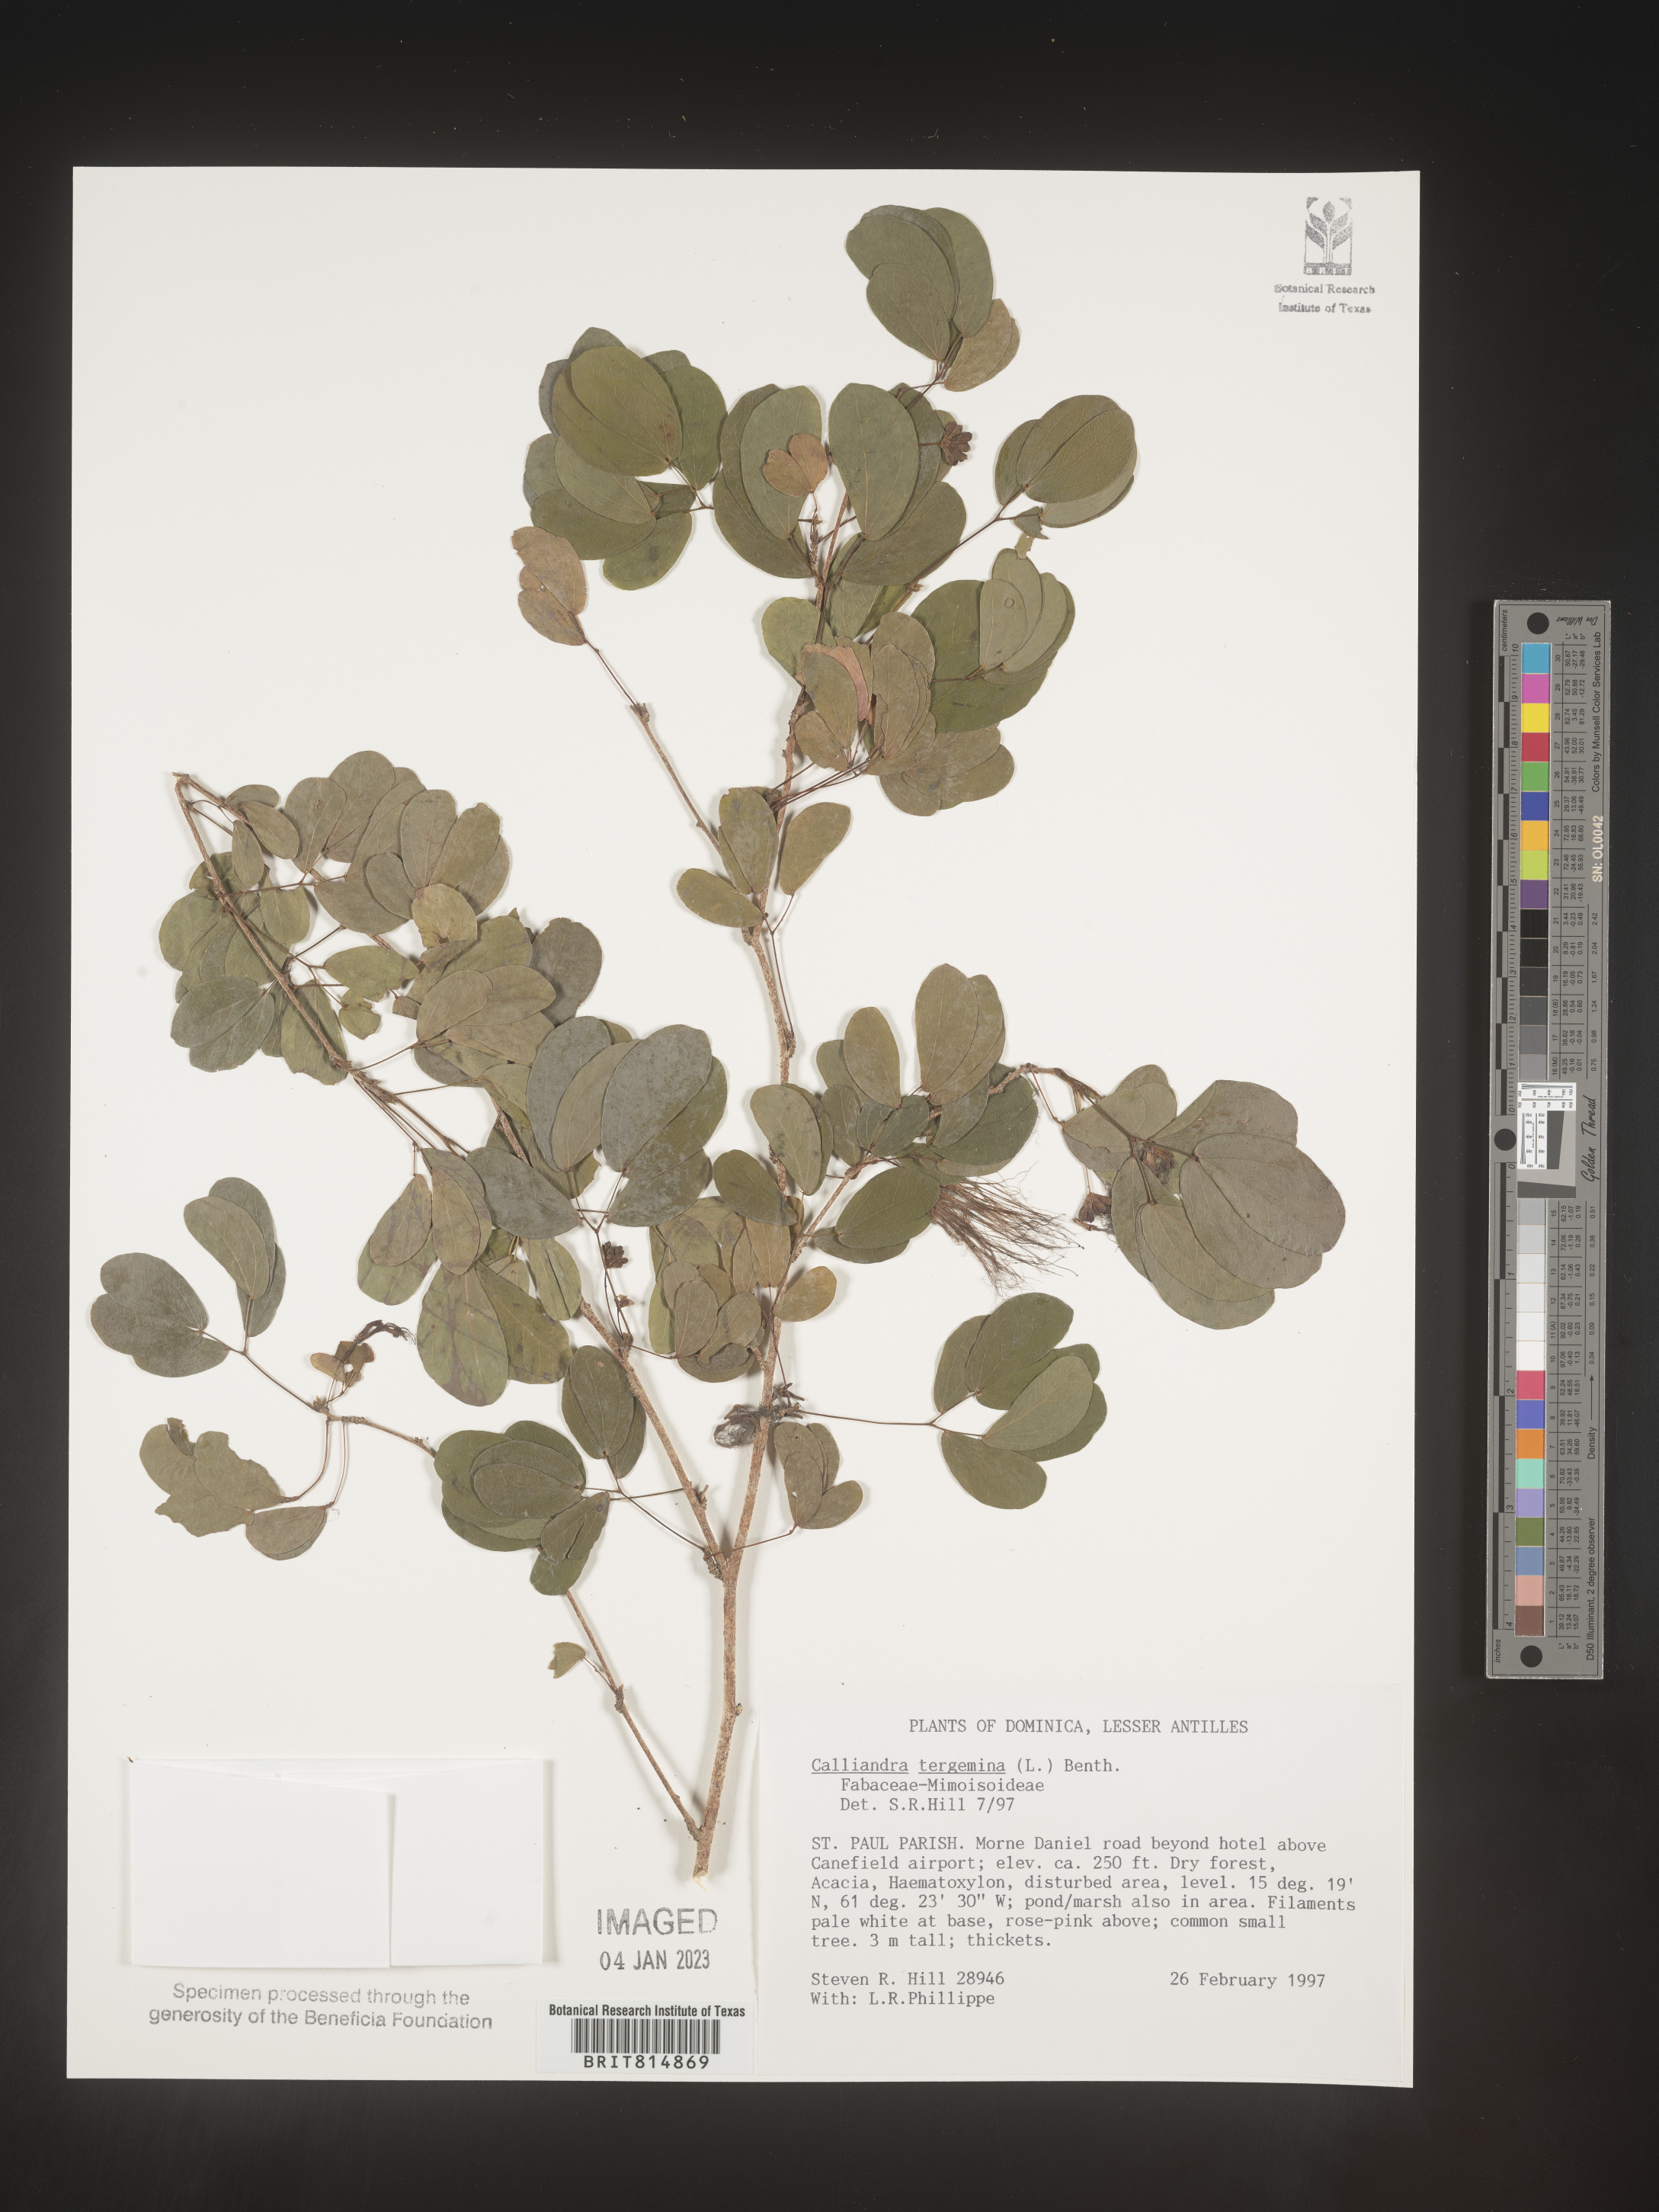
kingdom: Plantae
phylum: Tracheophyta
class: Magnoliopsida
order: Fabales
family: Fabaceae
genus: Calliandra
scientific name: Calliandra
